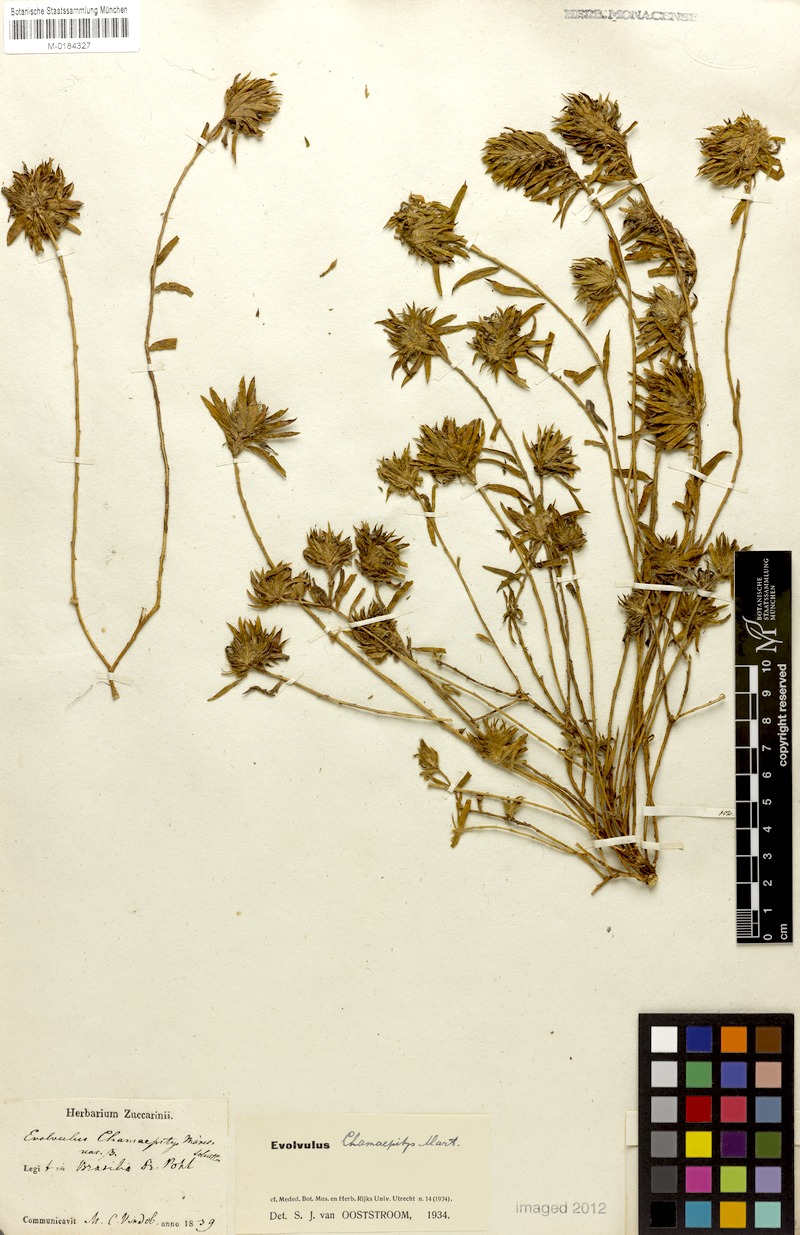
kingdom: Plantae
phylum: Tracheophyta
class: Magnoliopsida
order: Solanales
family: Convolvulaceae
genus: Evolvulus
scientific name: Evolvulus chamaepitys
